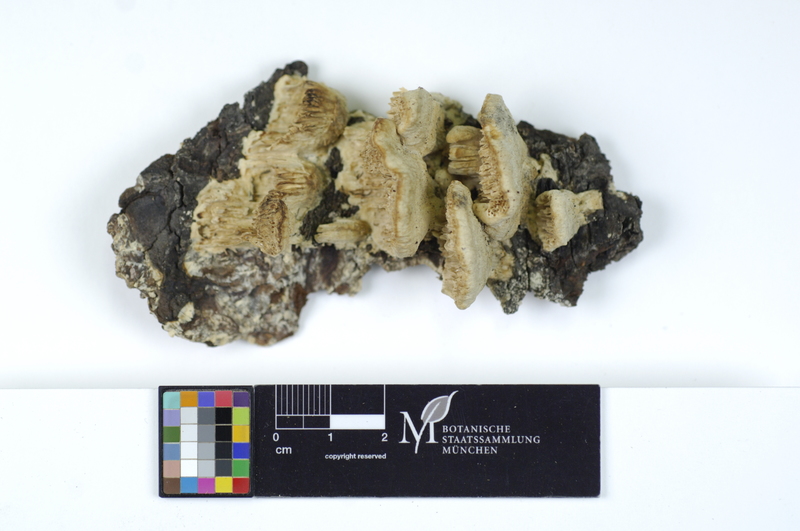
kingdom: Plantae
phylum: Tracheophyta
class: Pinopsida
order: Pinales
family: Pinaceae
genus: Picea
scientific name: Picea
